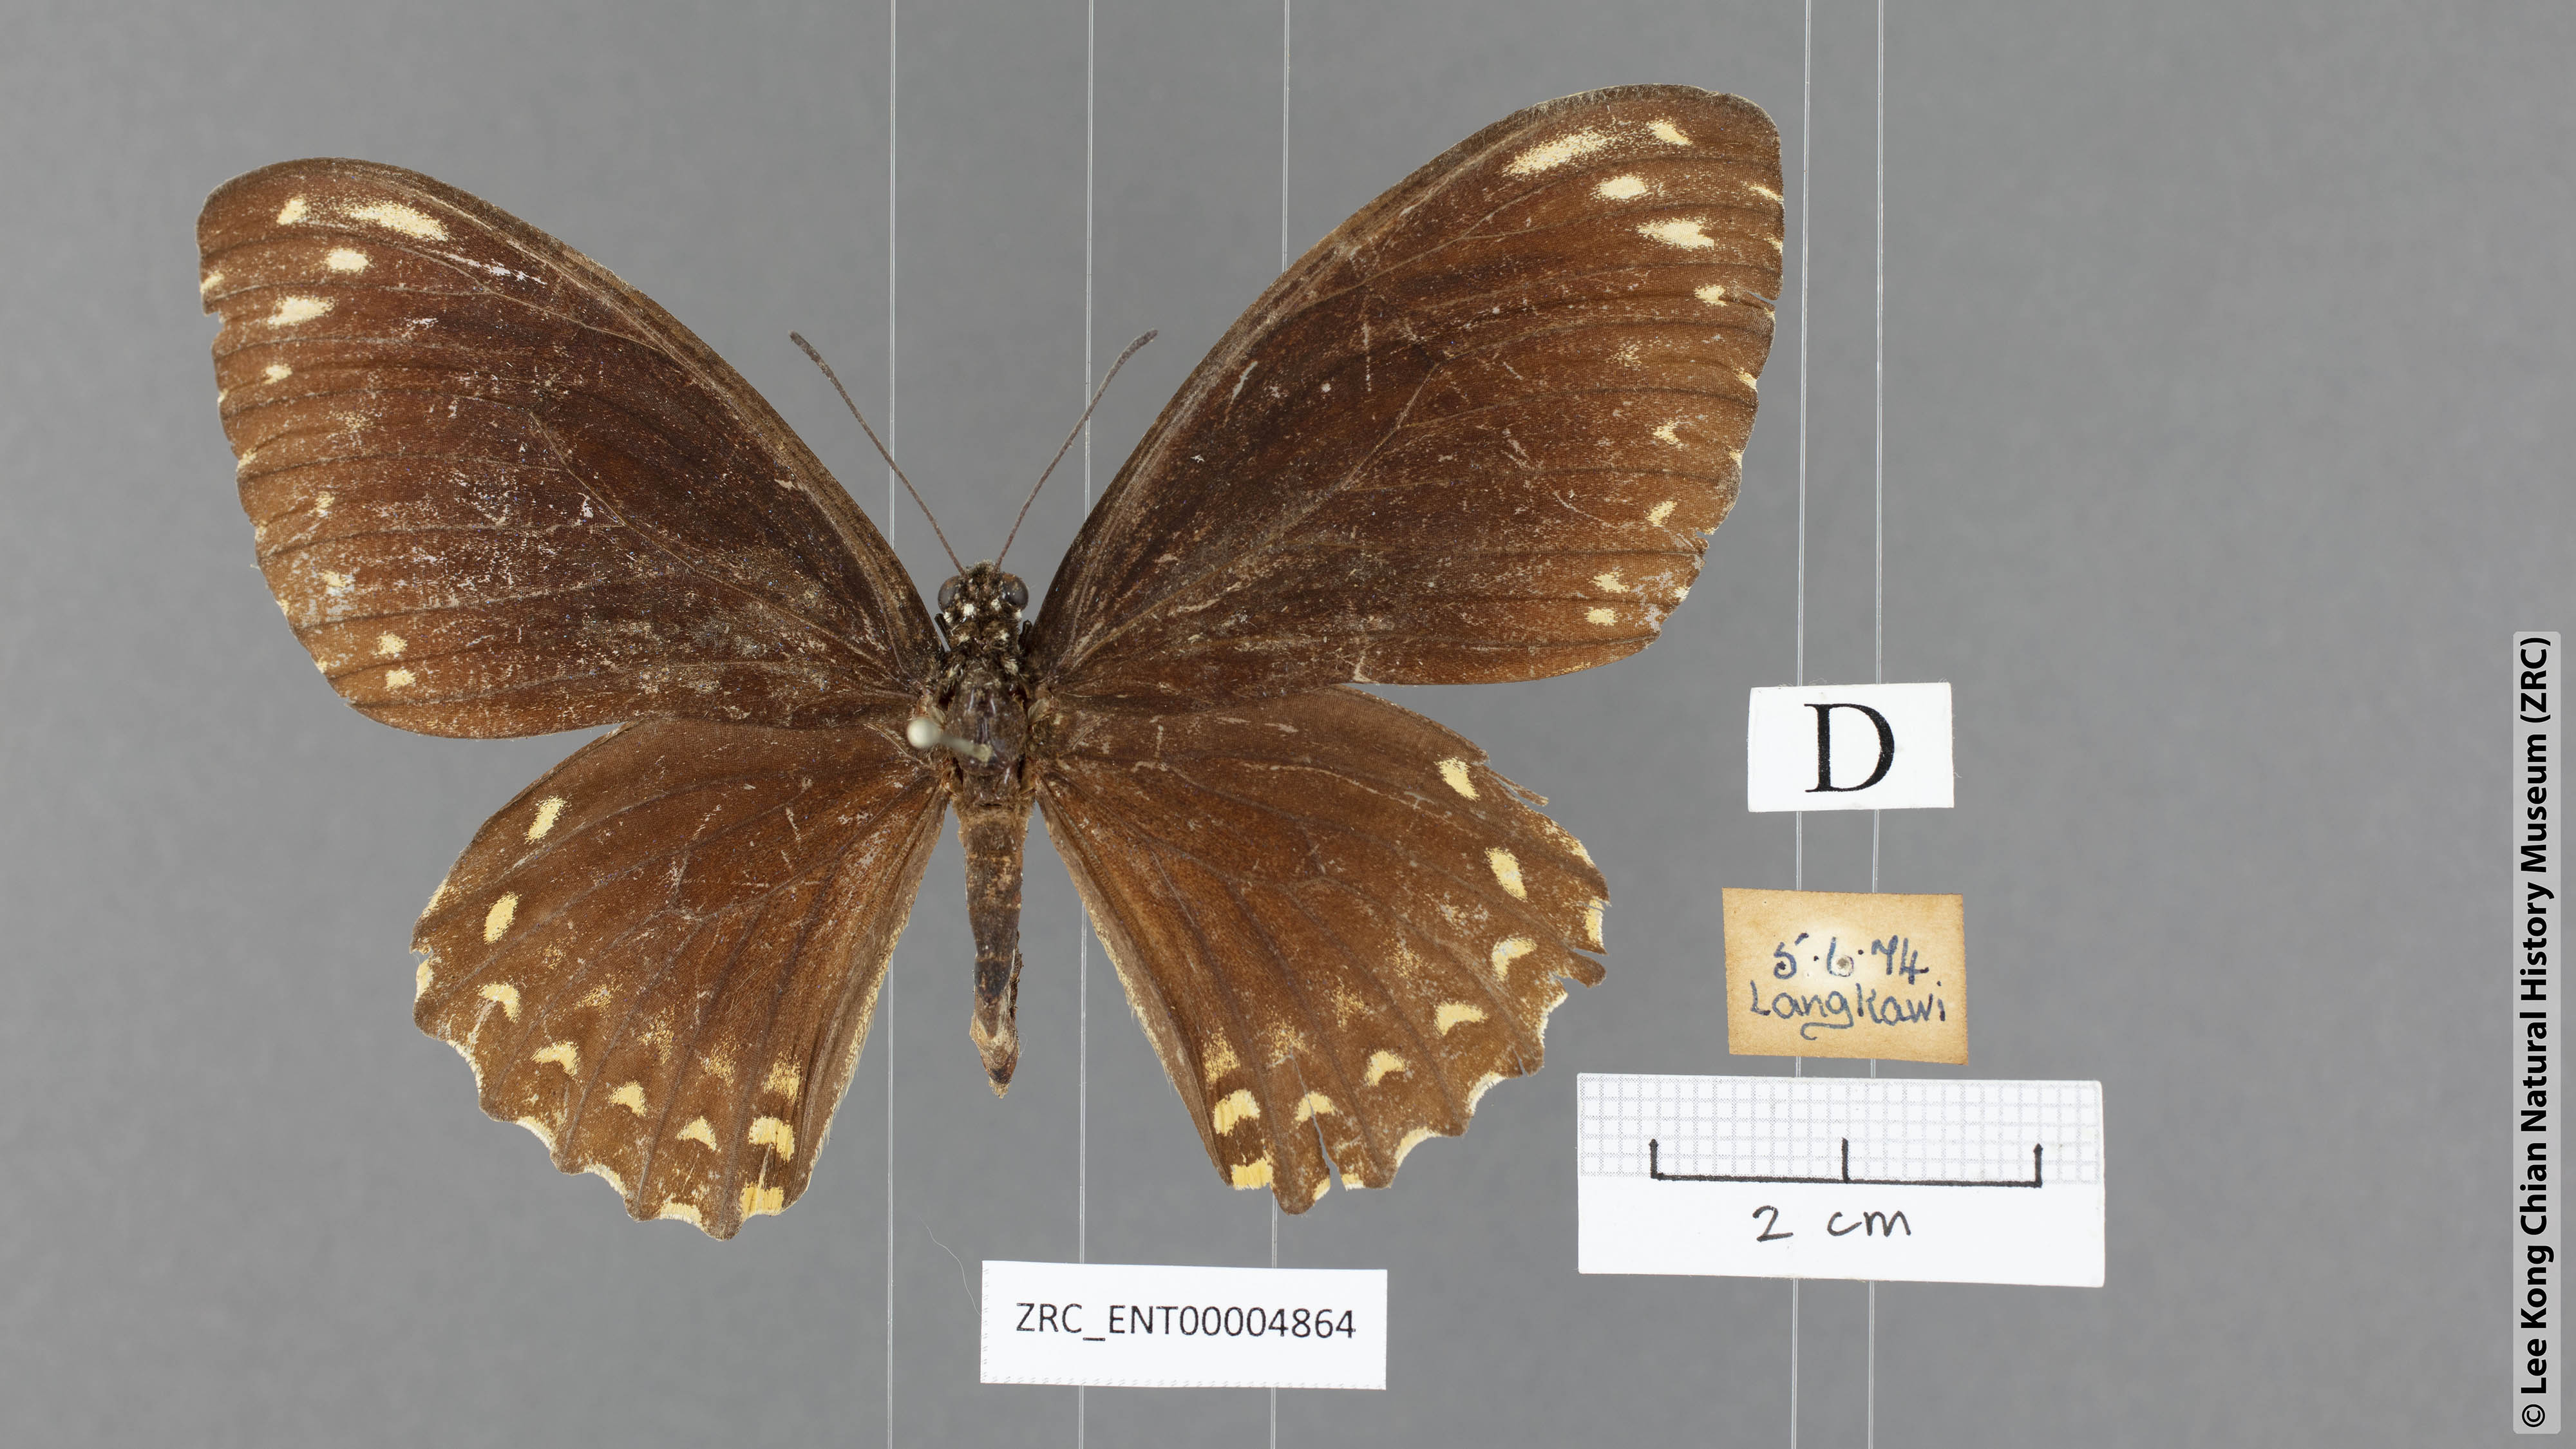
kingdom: Animalia
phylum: Arthropoda
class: Insecta
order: Lepidoptera
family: Papilionidae
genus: Chilasa
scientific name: Chilasa clytia
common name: Common mime
